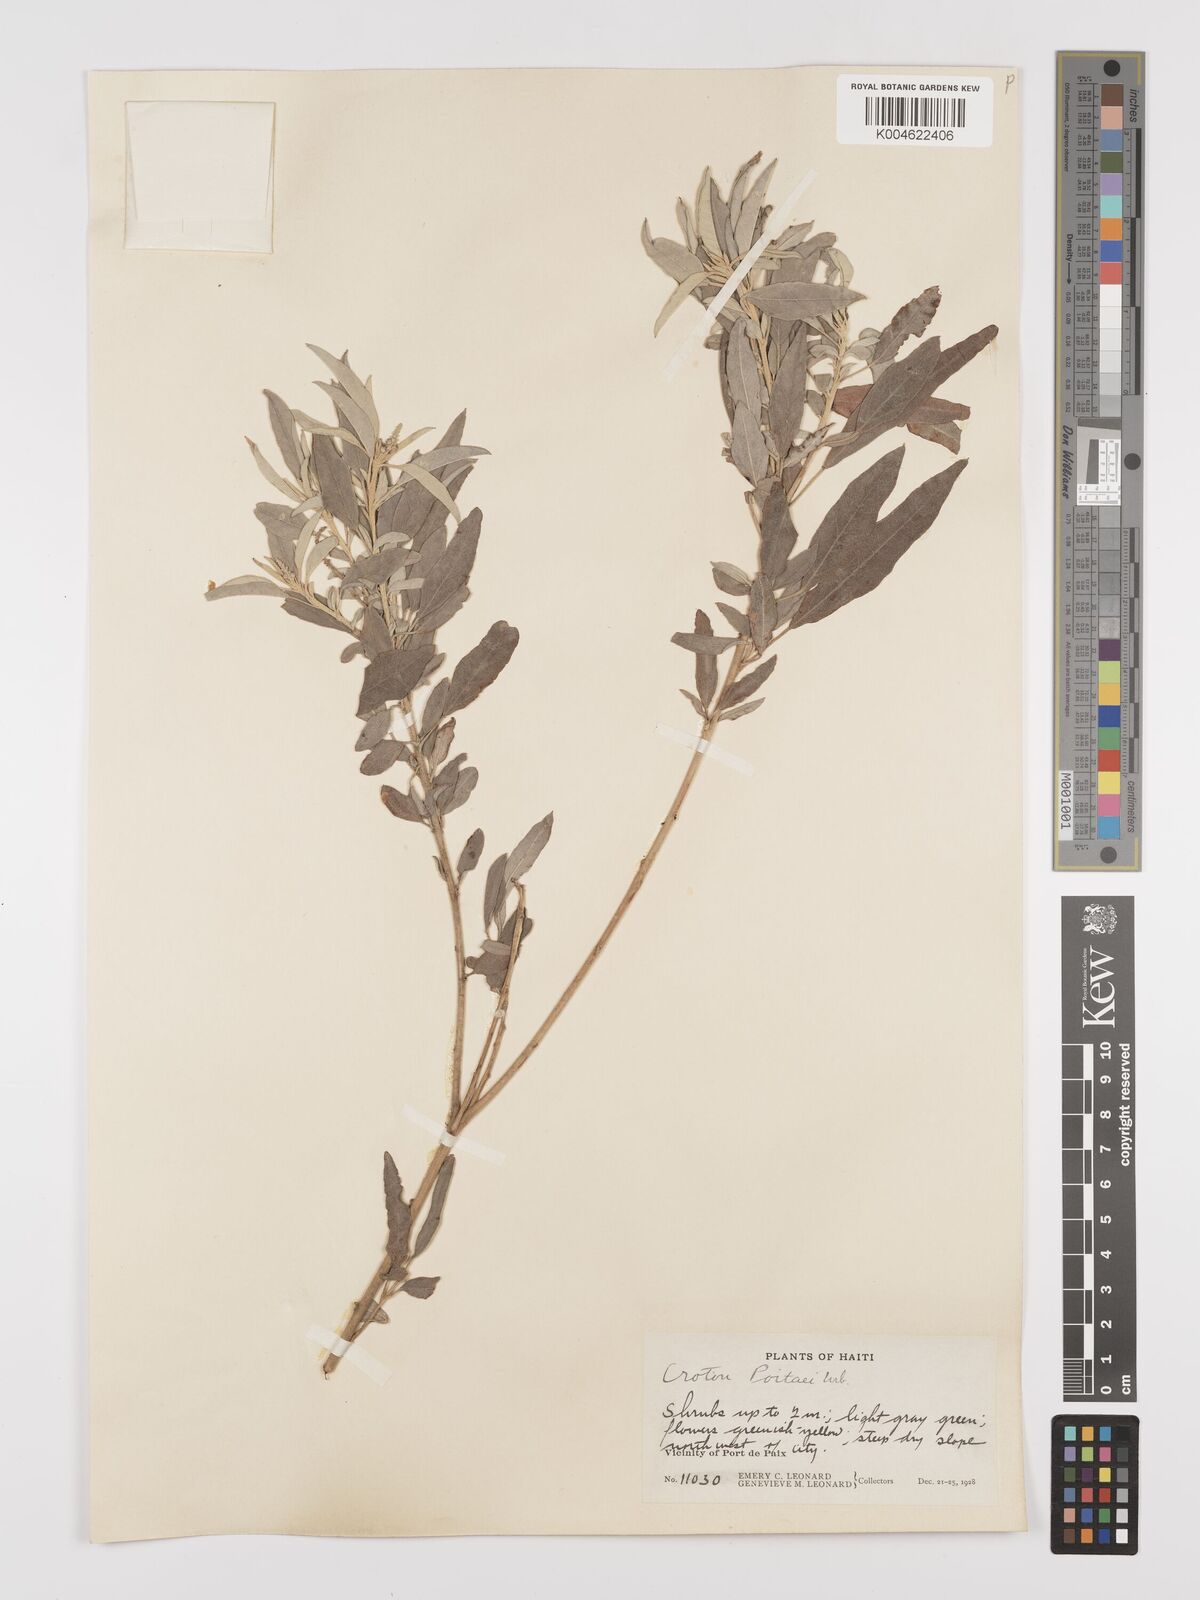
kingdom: Plantae
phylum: Tracheophyta
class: Magnoliopsida
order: Malpighiales
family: Euphorbiaceae
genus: Croton
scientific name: Croton poitaei
